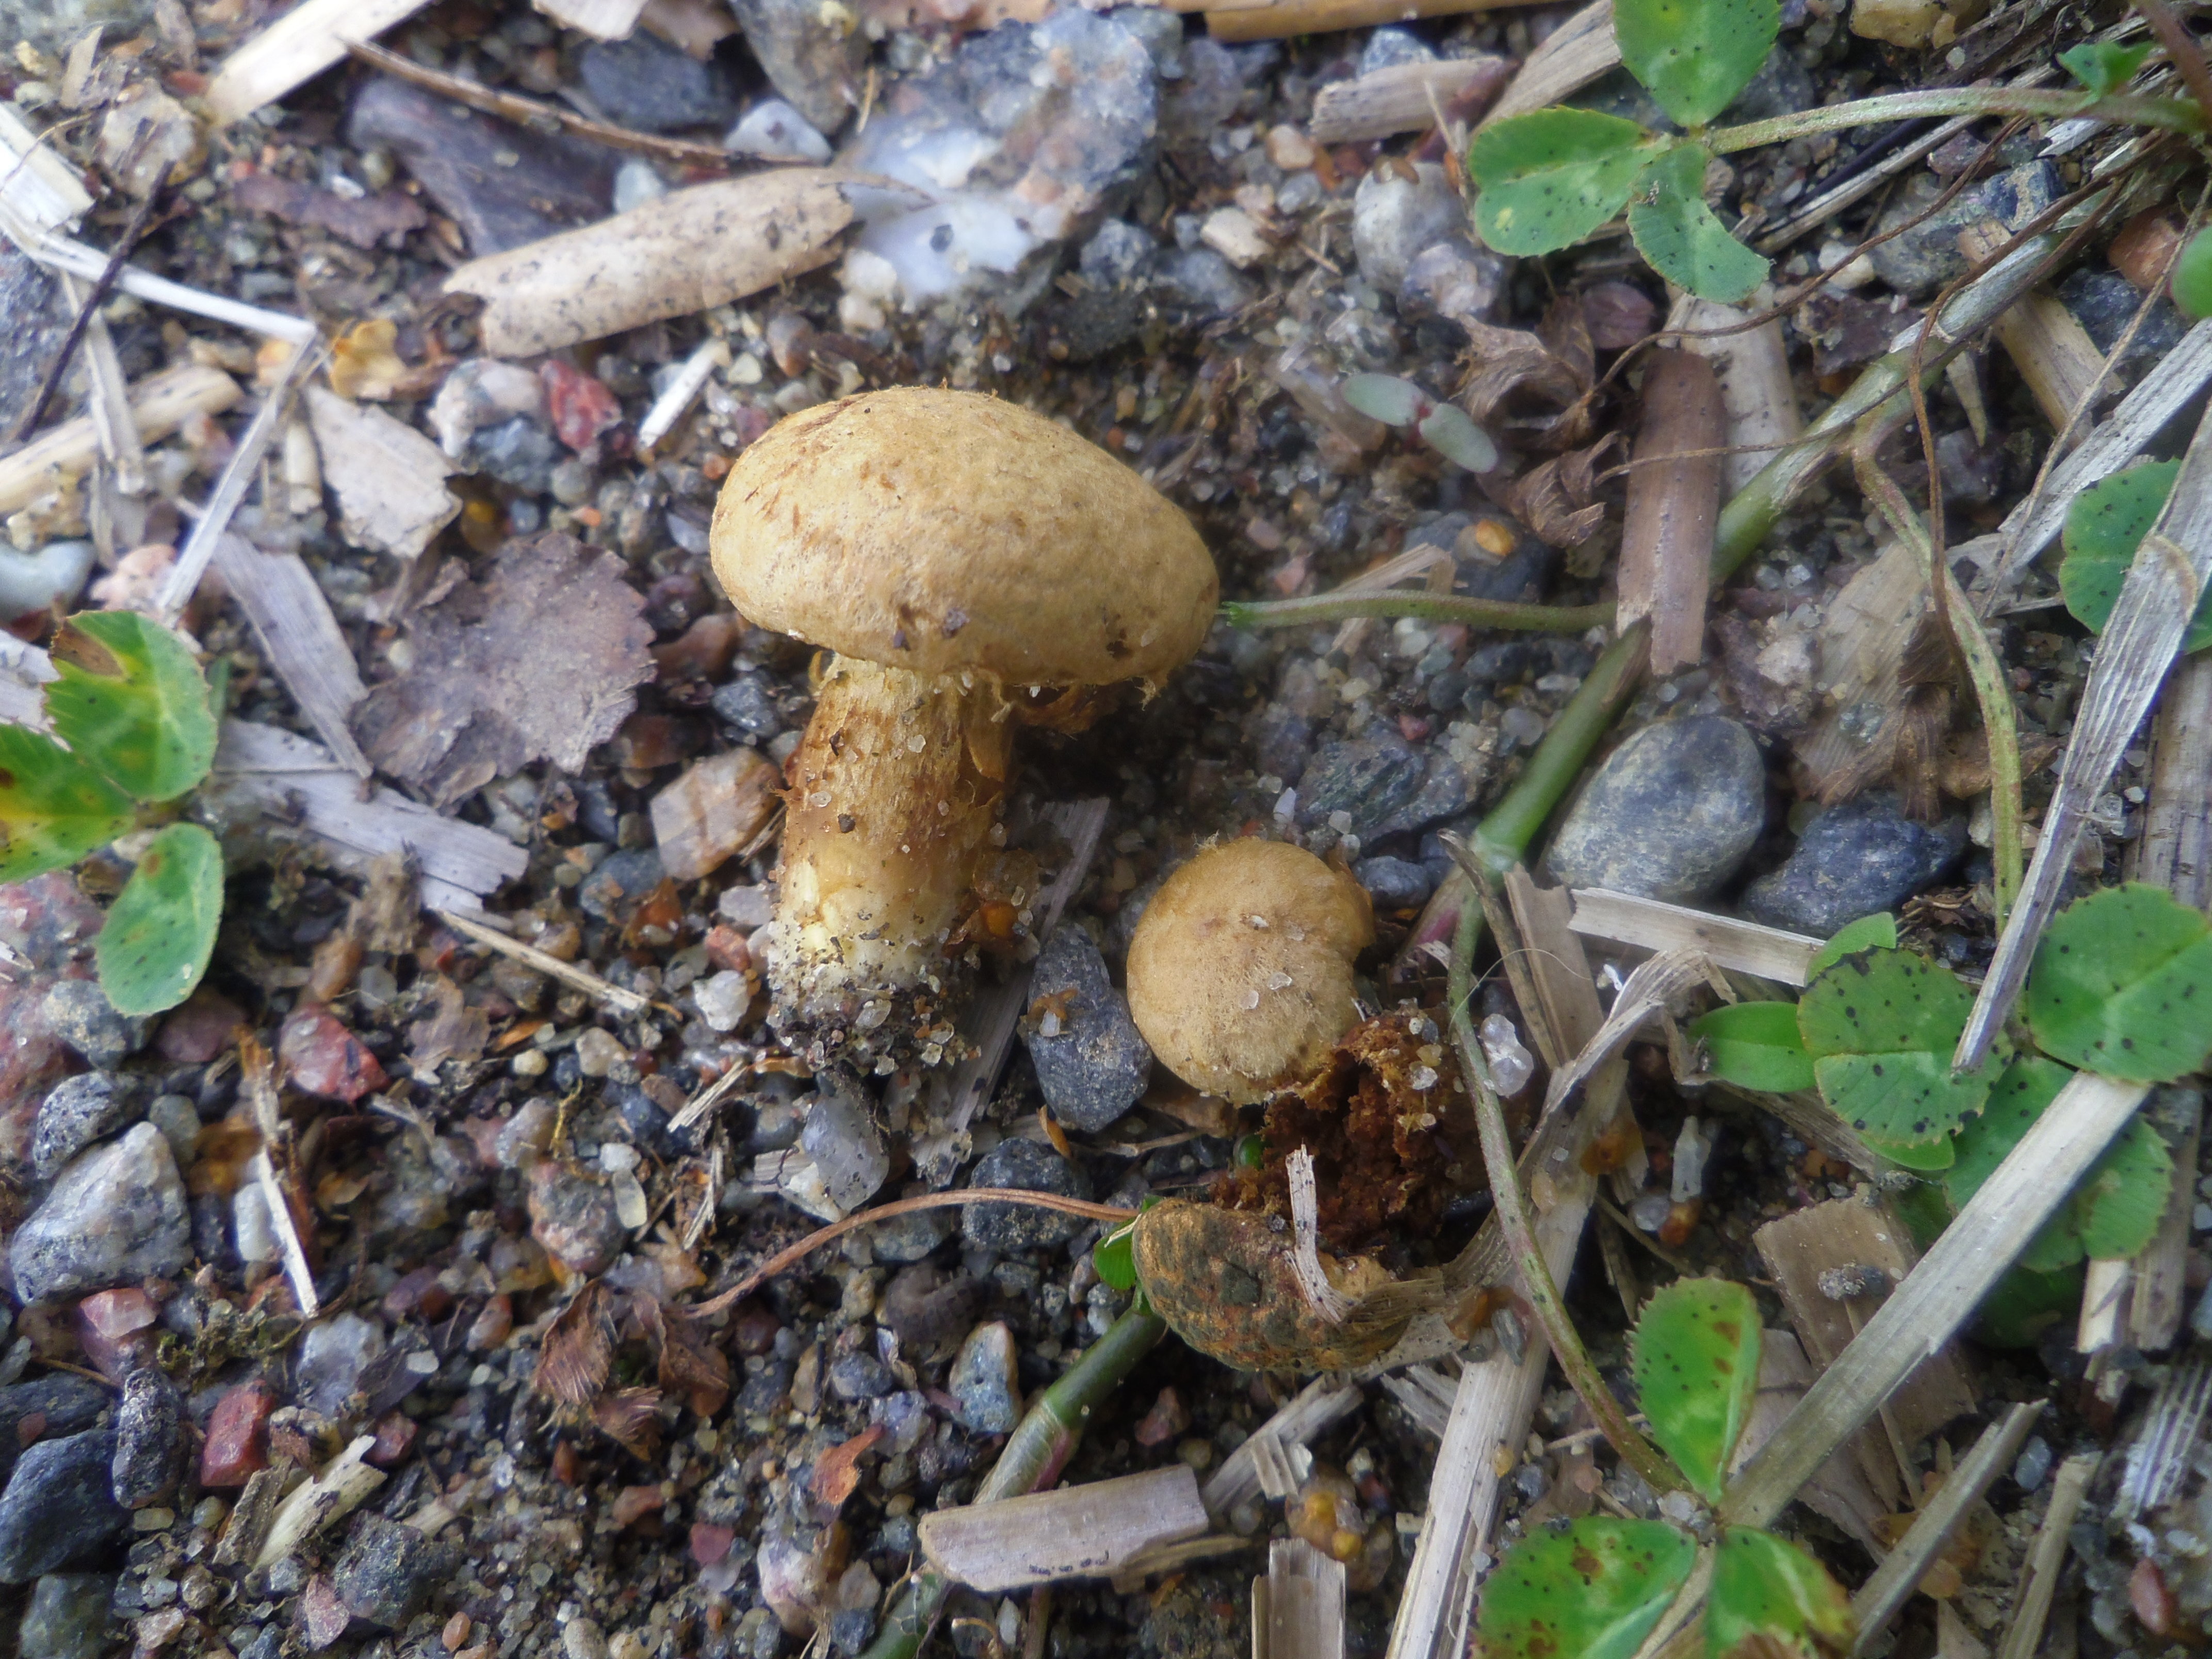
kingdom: Fungi
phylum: Basidiomycota
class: Agaricomycetes
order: Agaricales
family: Inocybaceae
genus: Inocybe
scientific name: Inocybe
